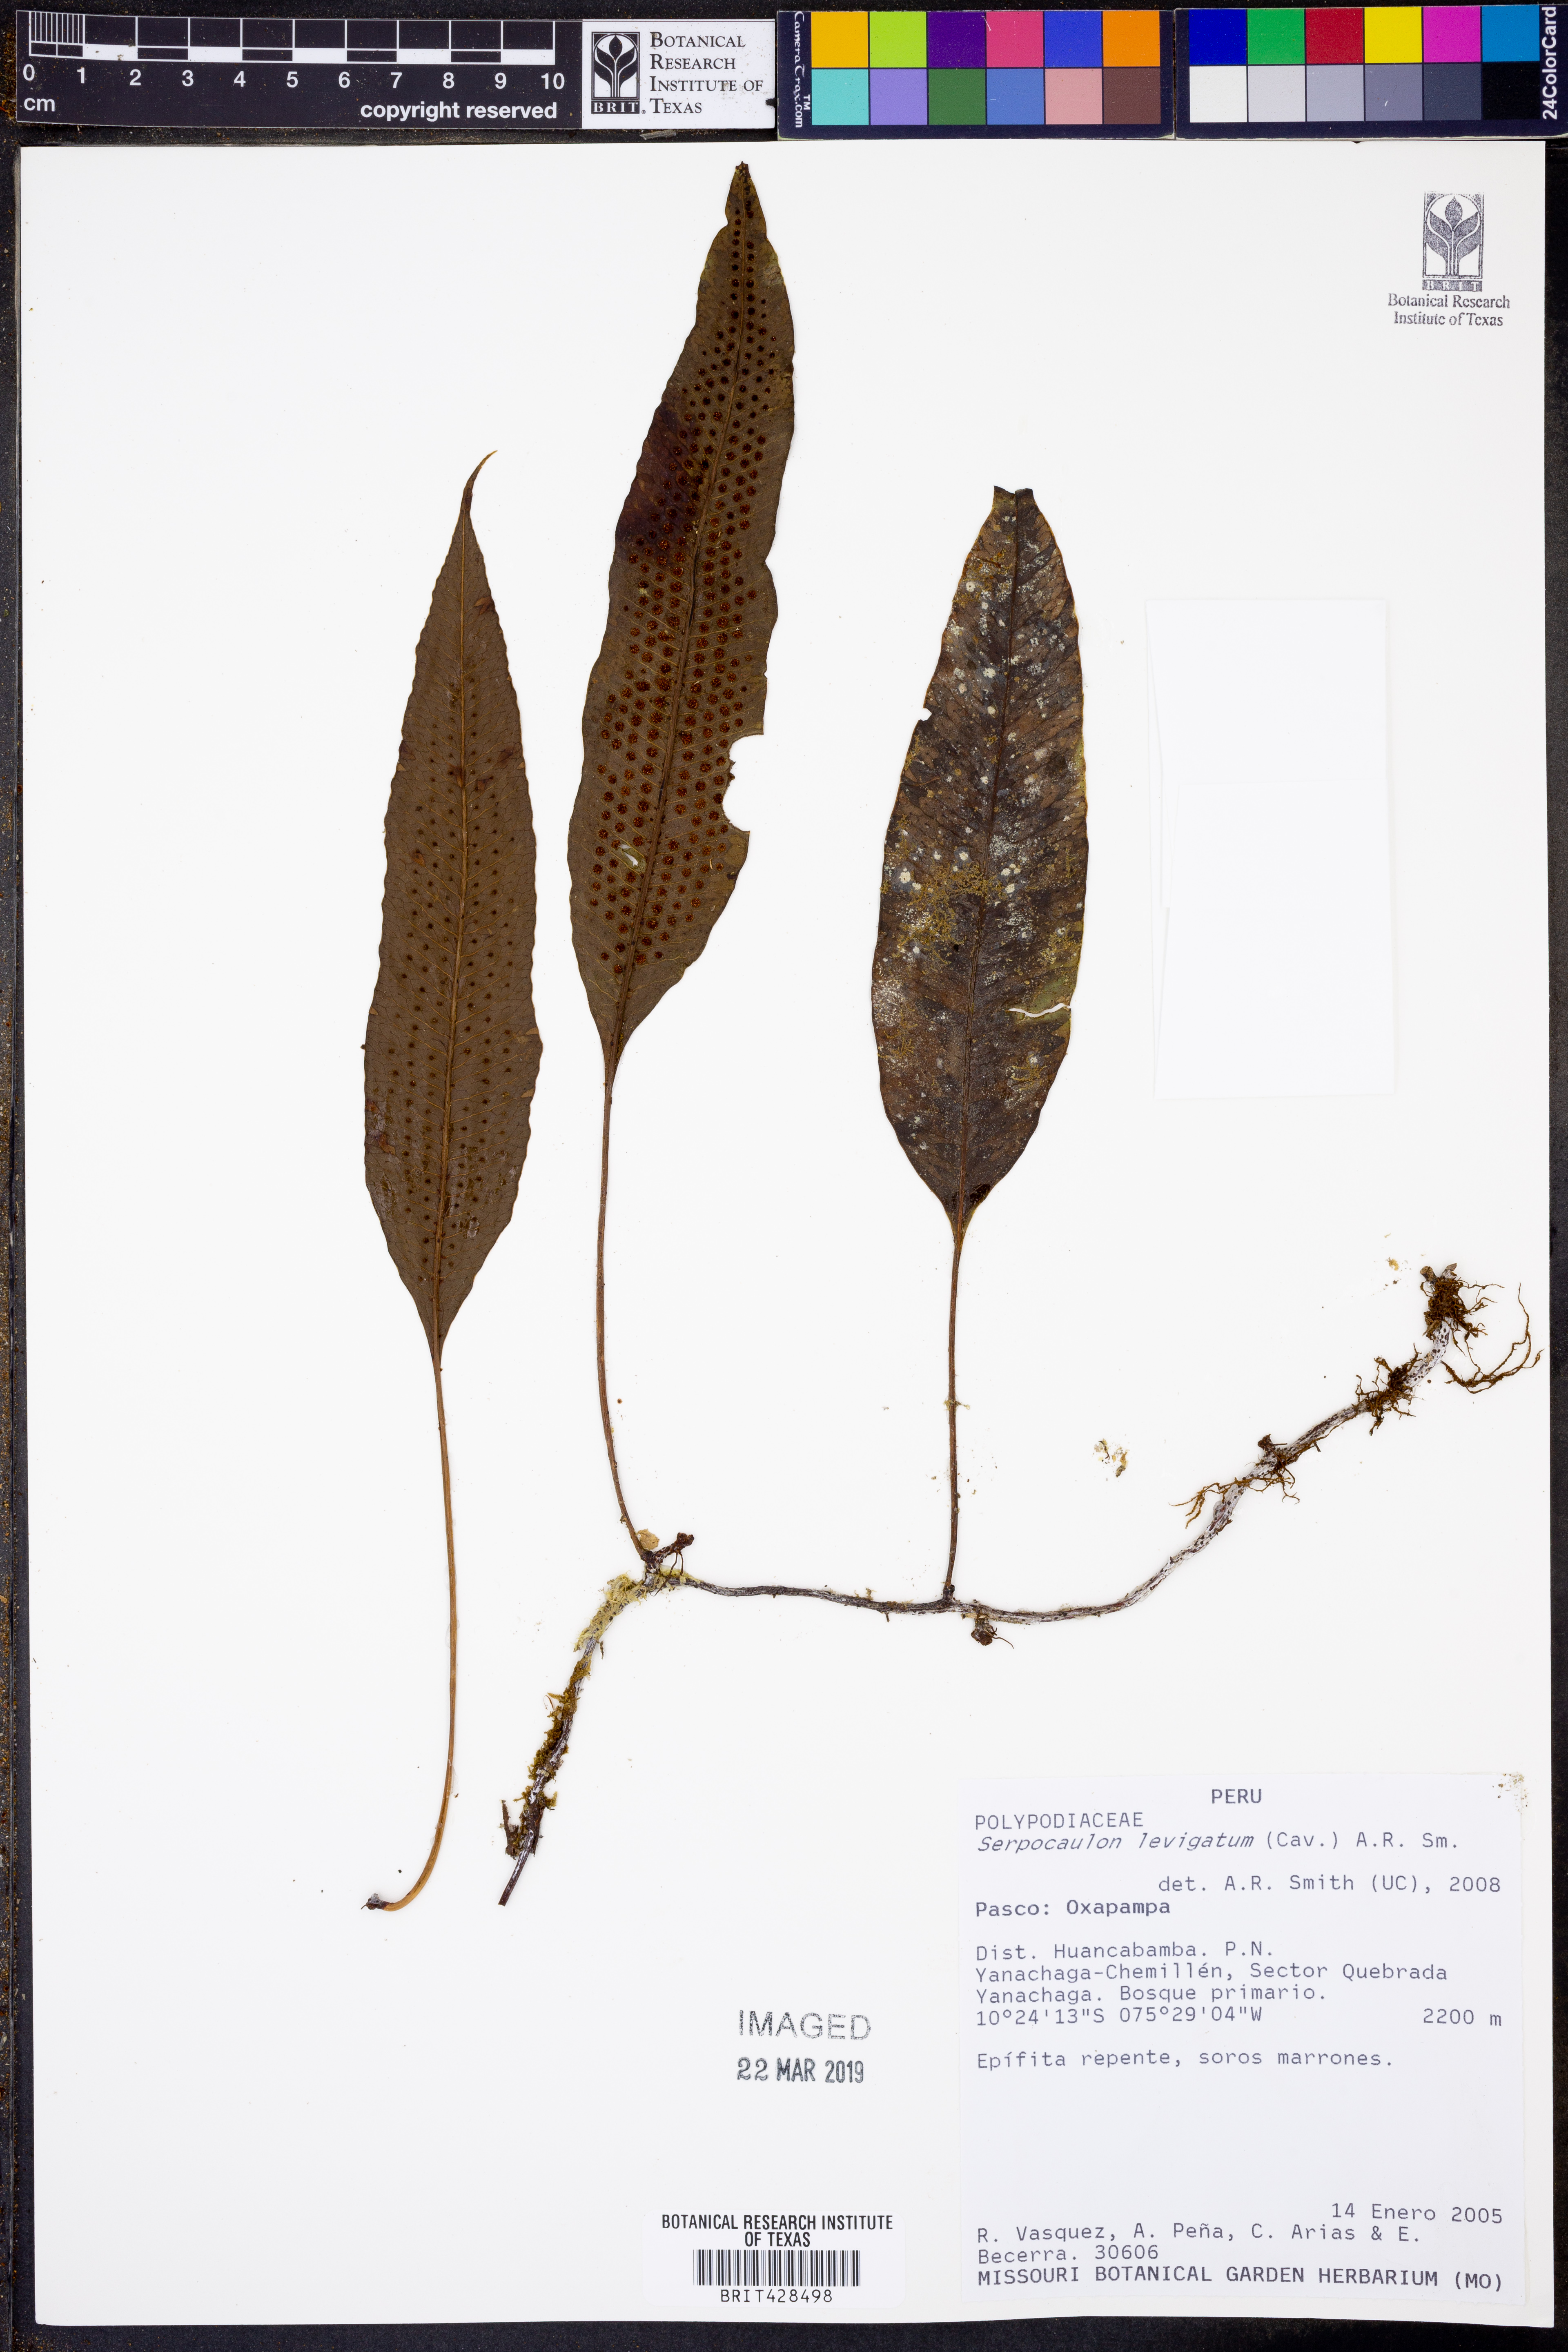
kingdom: Plantae
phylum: Tracheophyta
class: Polypodiopsida
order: Polypodiales
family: Polypodiaceae
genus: Serpocaulon
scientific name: Serpocaulon levigatum
